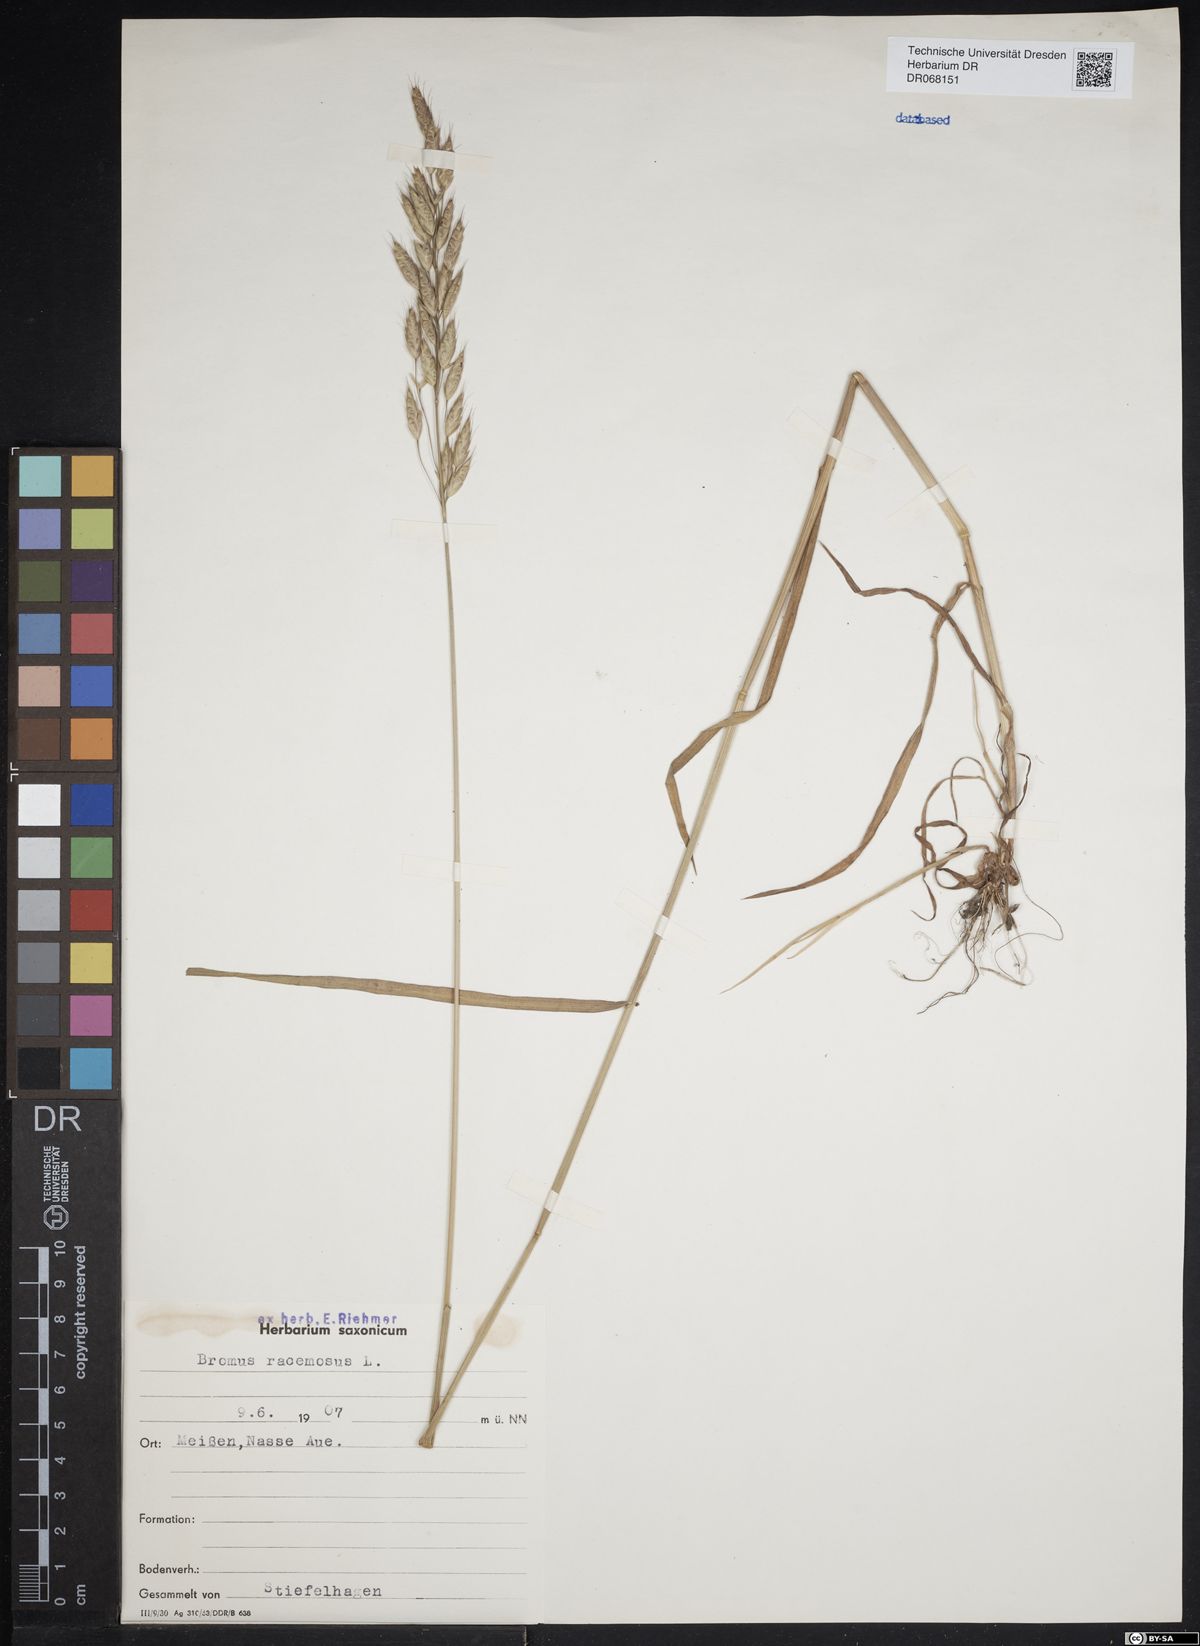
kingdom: Plantae
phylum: Tracheophyta
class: Liliopsida
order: Poales
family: Poaceae
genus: Bromus
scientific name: Bromus racemosus
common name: Bald brome
